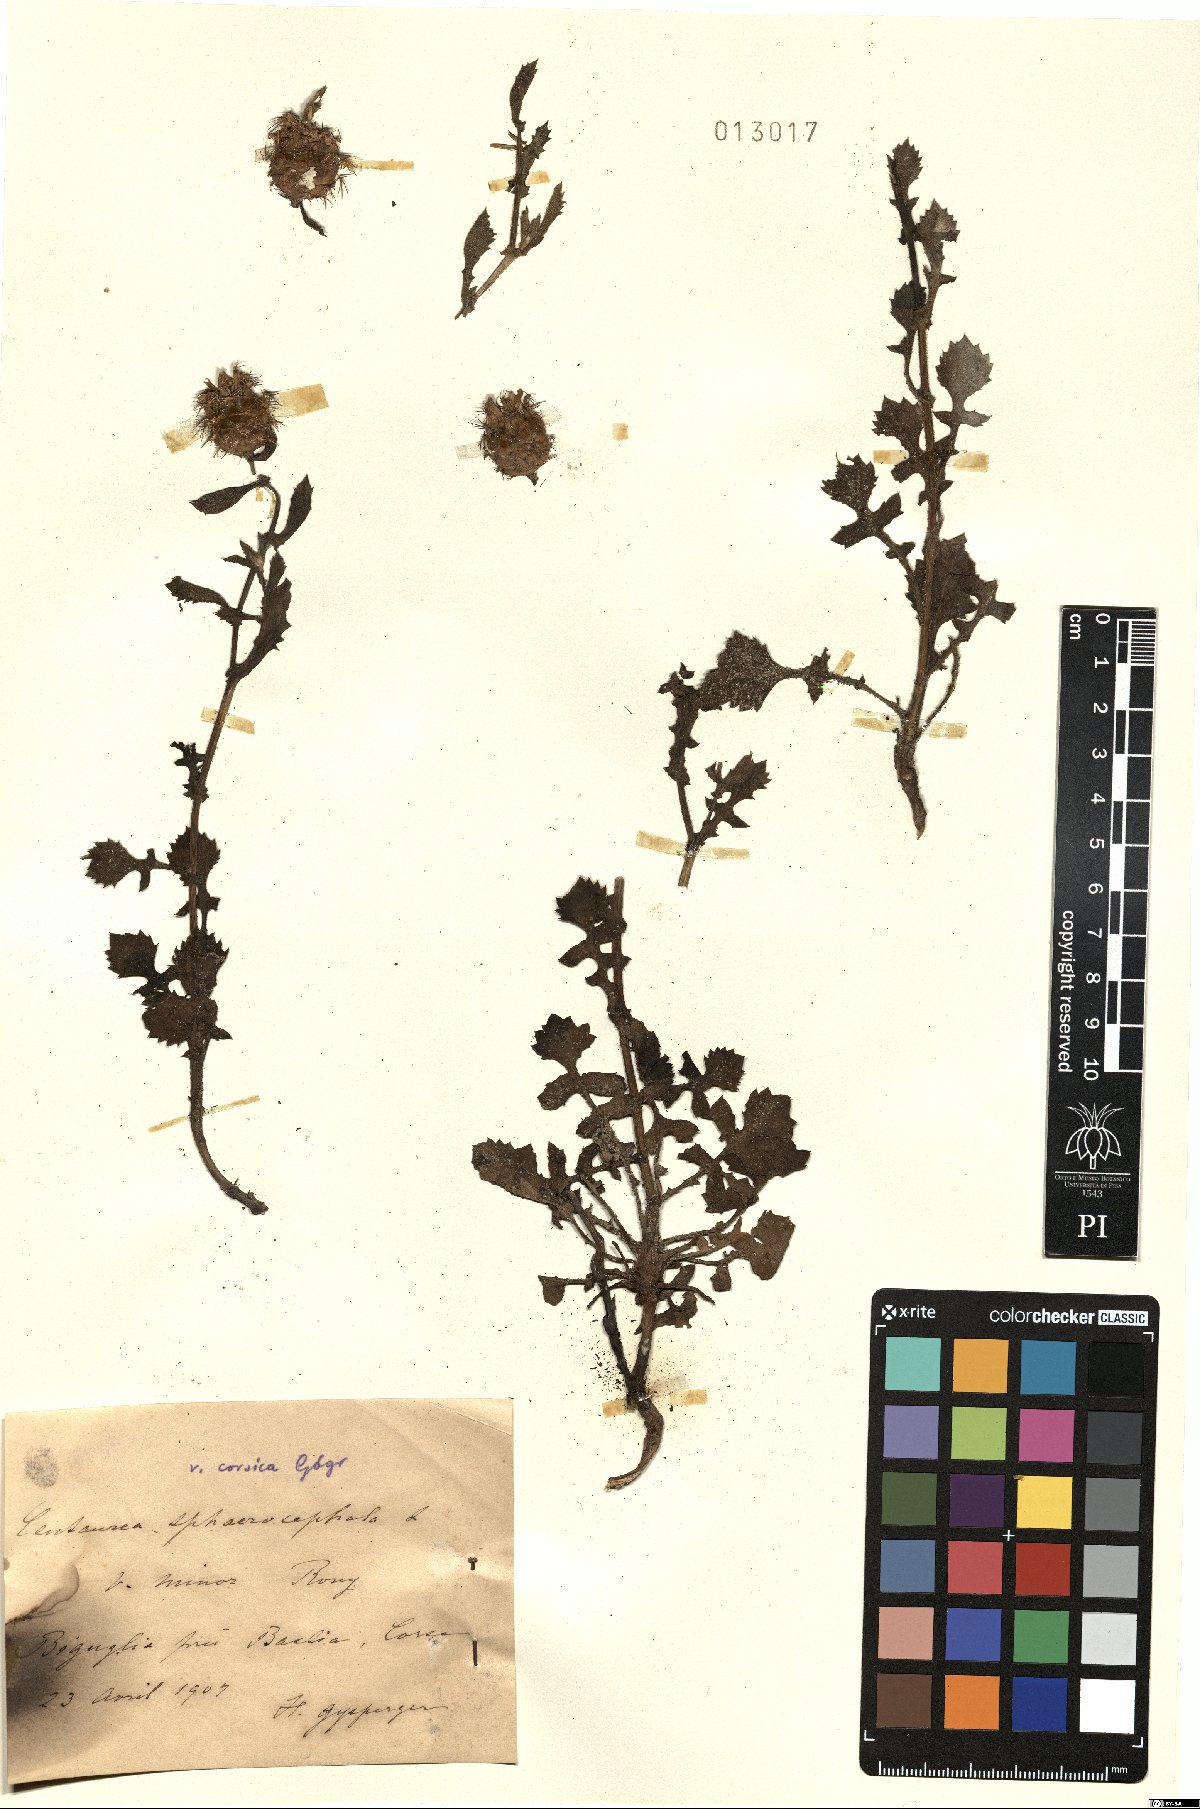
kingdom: Plantae
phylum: Tracheophyta
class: Magnoliopsida
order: Asterales
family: Asteraceae
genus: Centaurea
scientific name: Centaurea sphaerocephala
